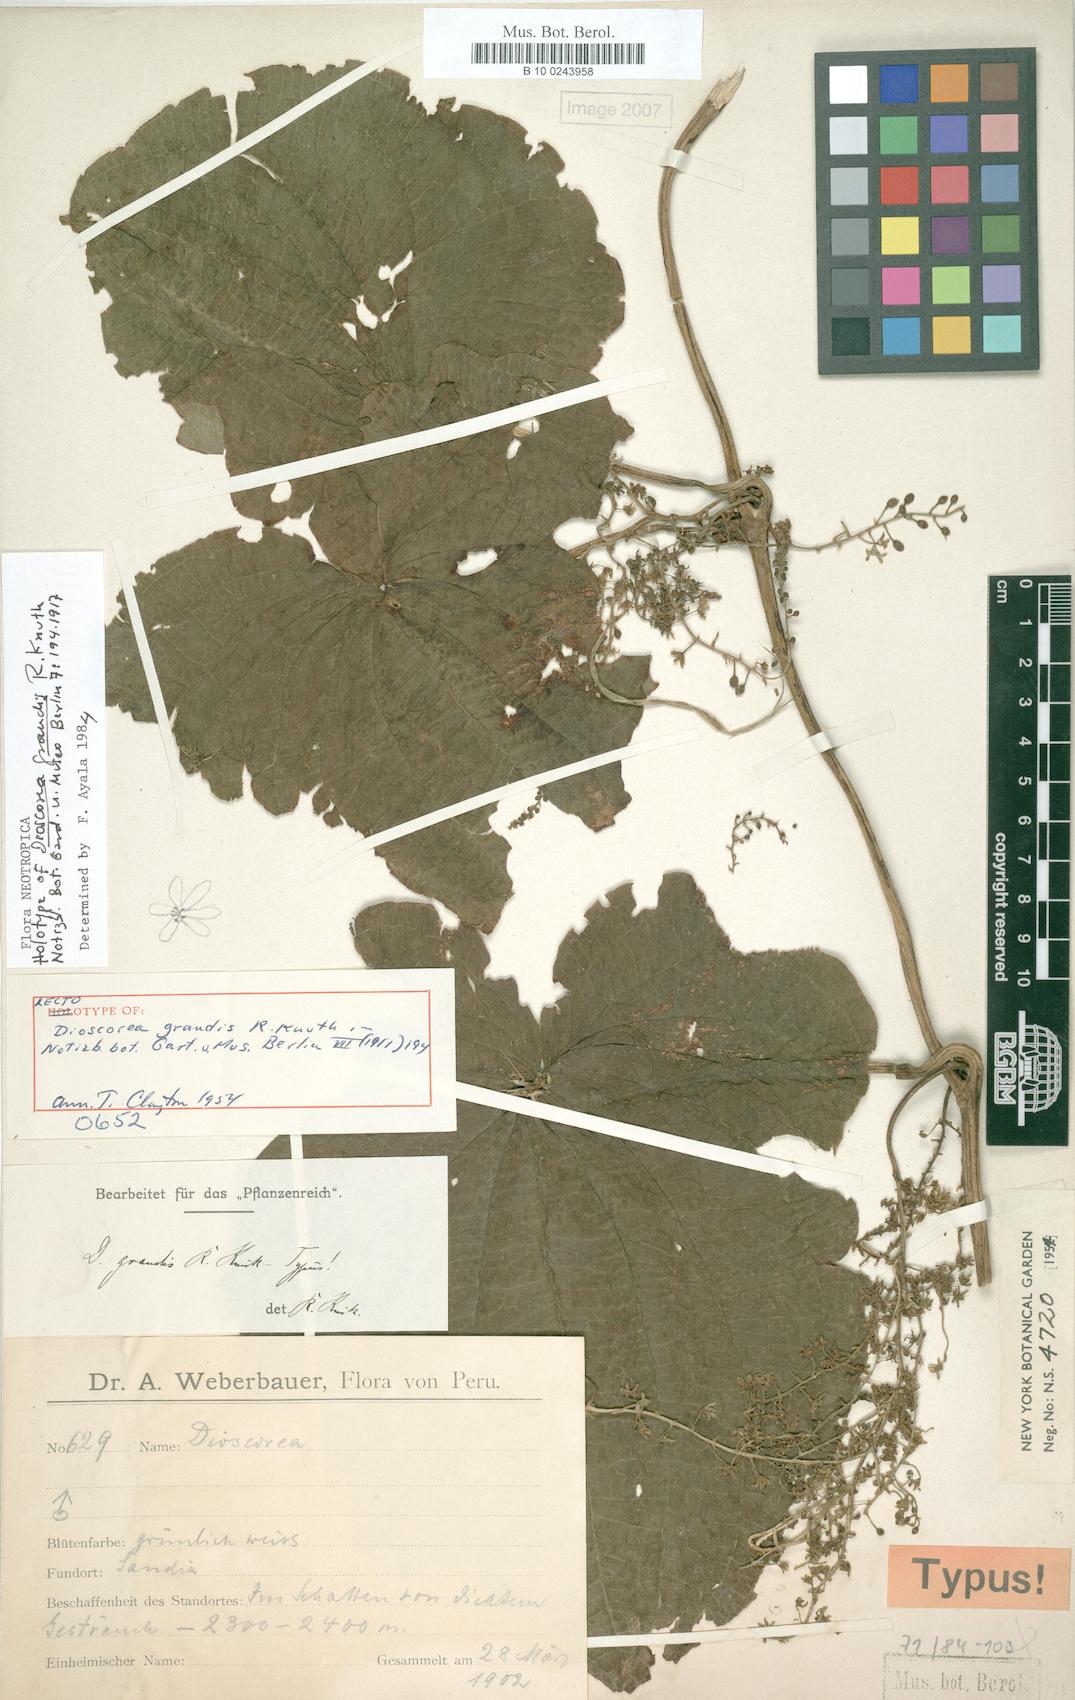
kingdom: Plantae
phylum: Tracheophyta
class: Liliopsida
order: Dioscoreales
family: Dioscoreaceae
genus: Dioscorea
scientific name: Dioscorea grandis
